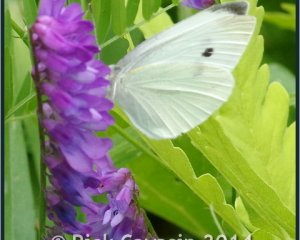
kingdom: Animalia
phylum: Arthropoda
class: Insecta
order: Lepidoptera
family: Pieridae
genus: Pieris
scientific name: Pieris rapae
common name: Cabbage White
